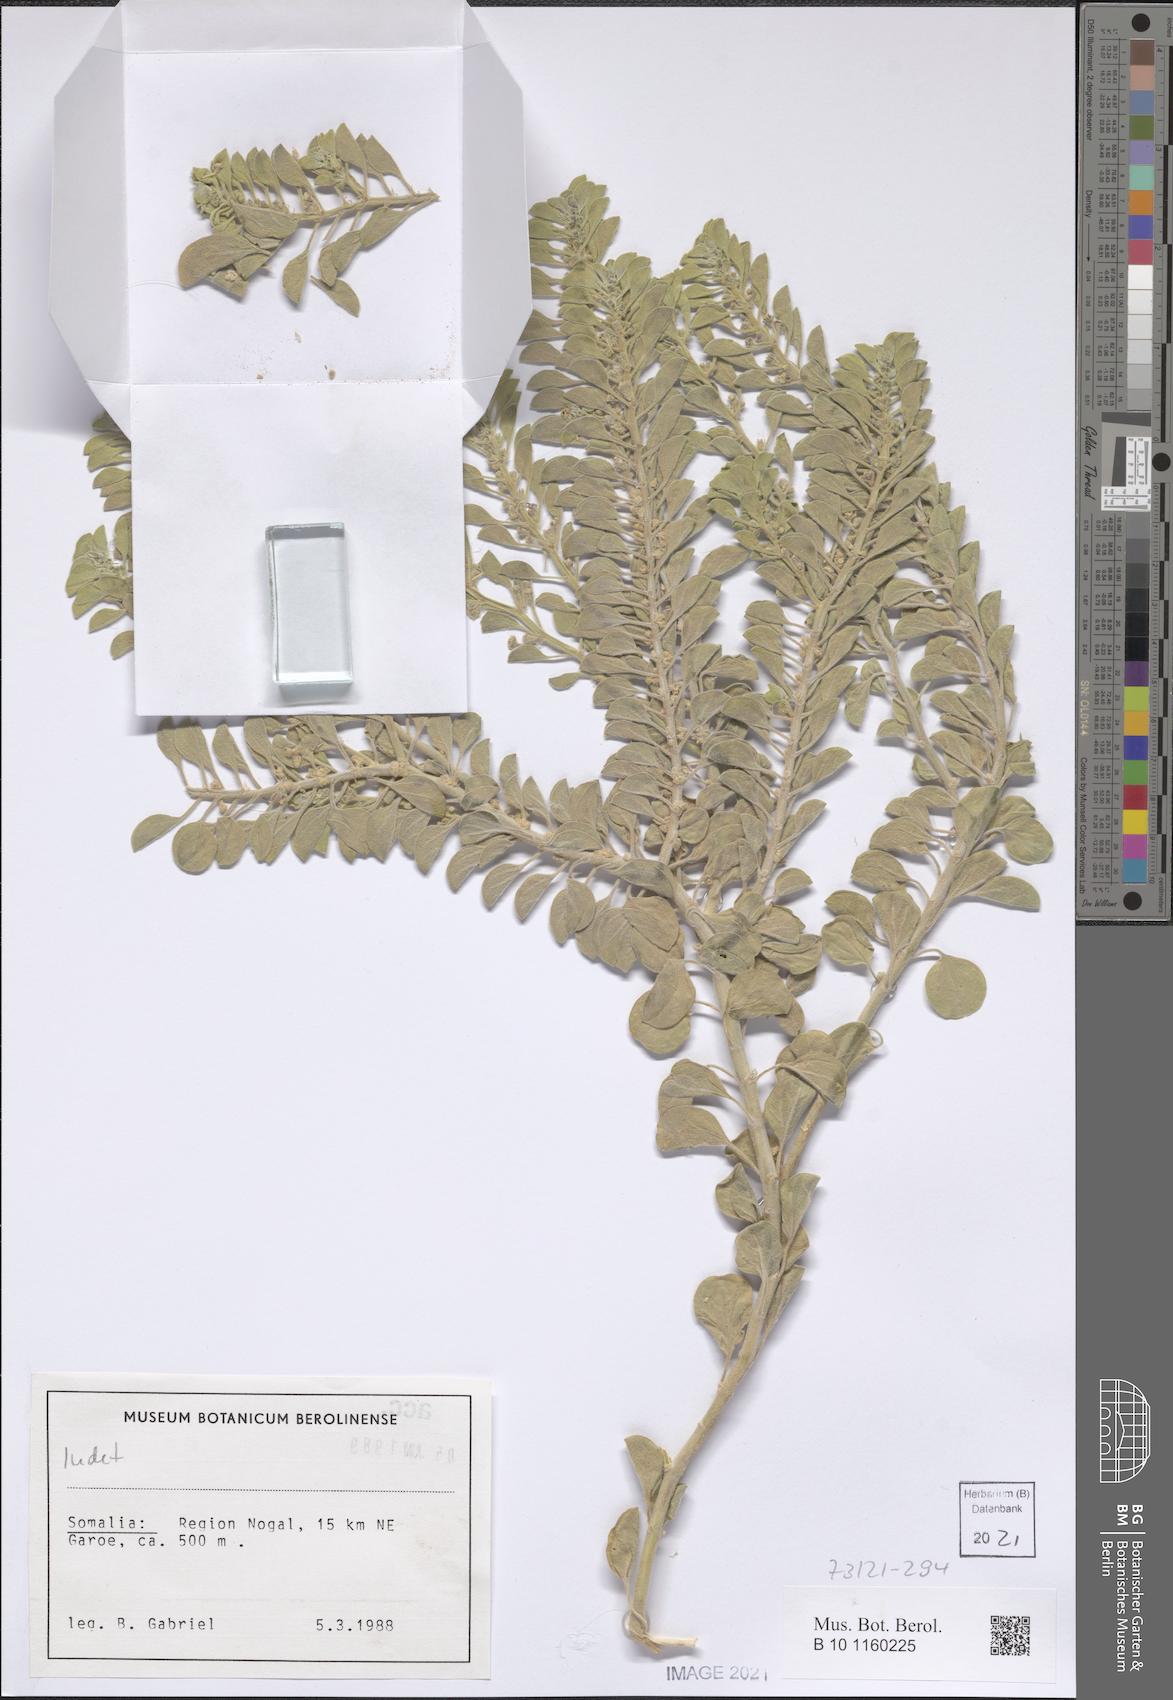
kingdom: Plantae
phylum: Tracheophyta
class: Magnoliopsida
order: Gentianales
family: Apocynaceae
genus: Cynanchum
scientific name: Cynanchum revoilii
